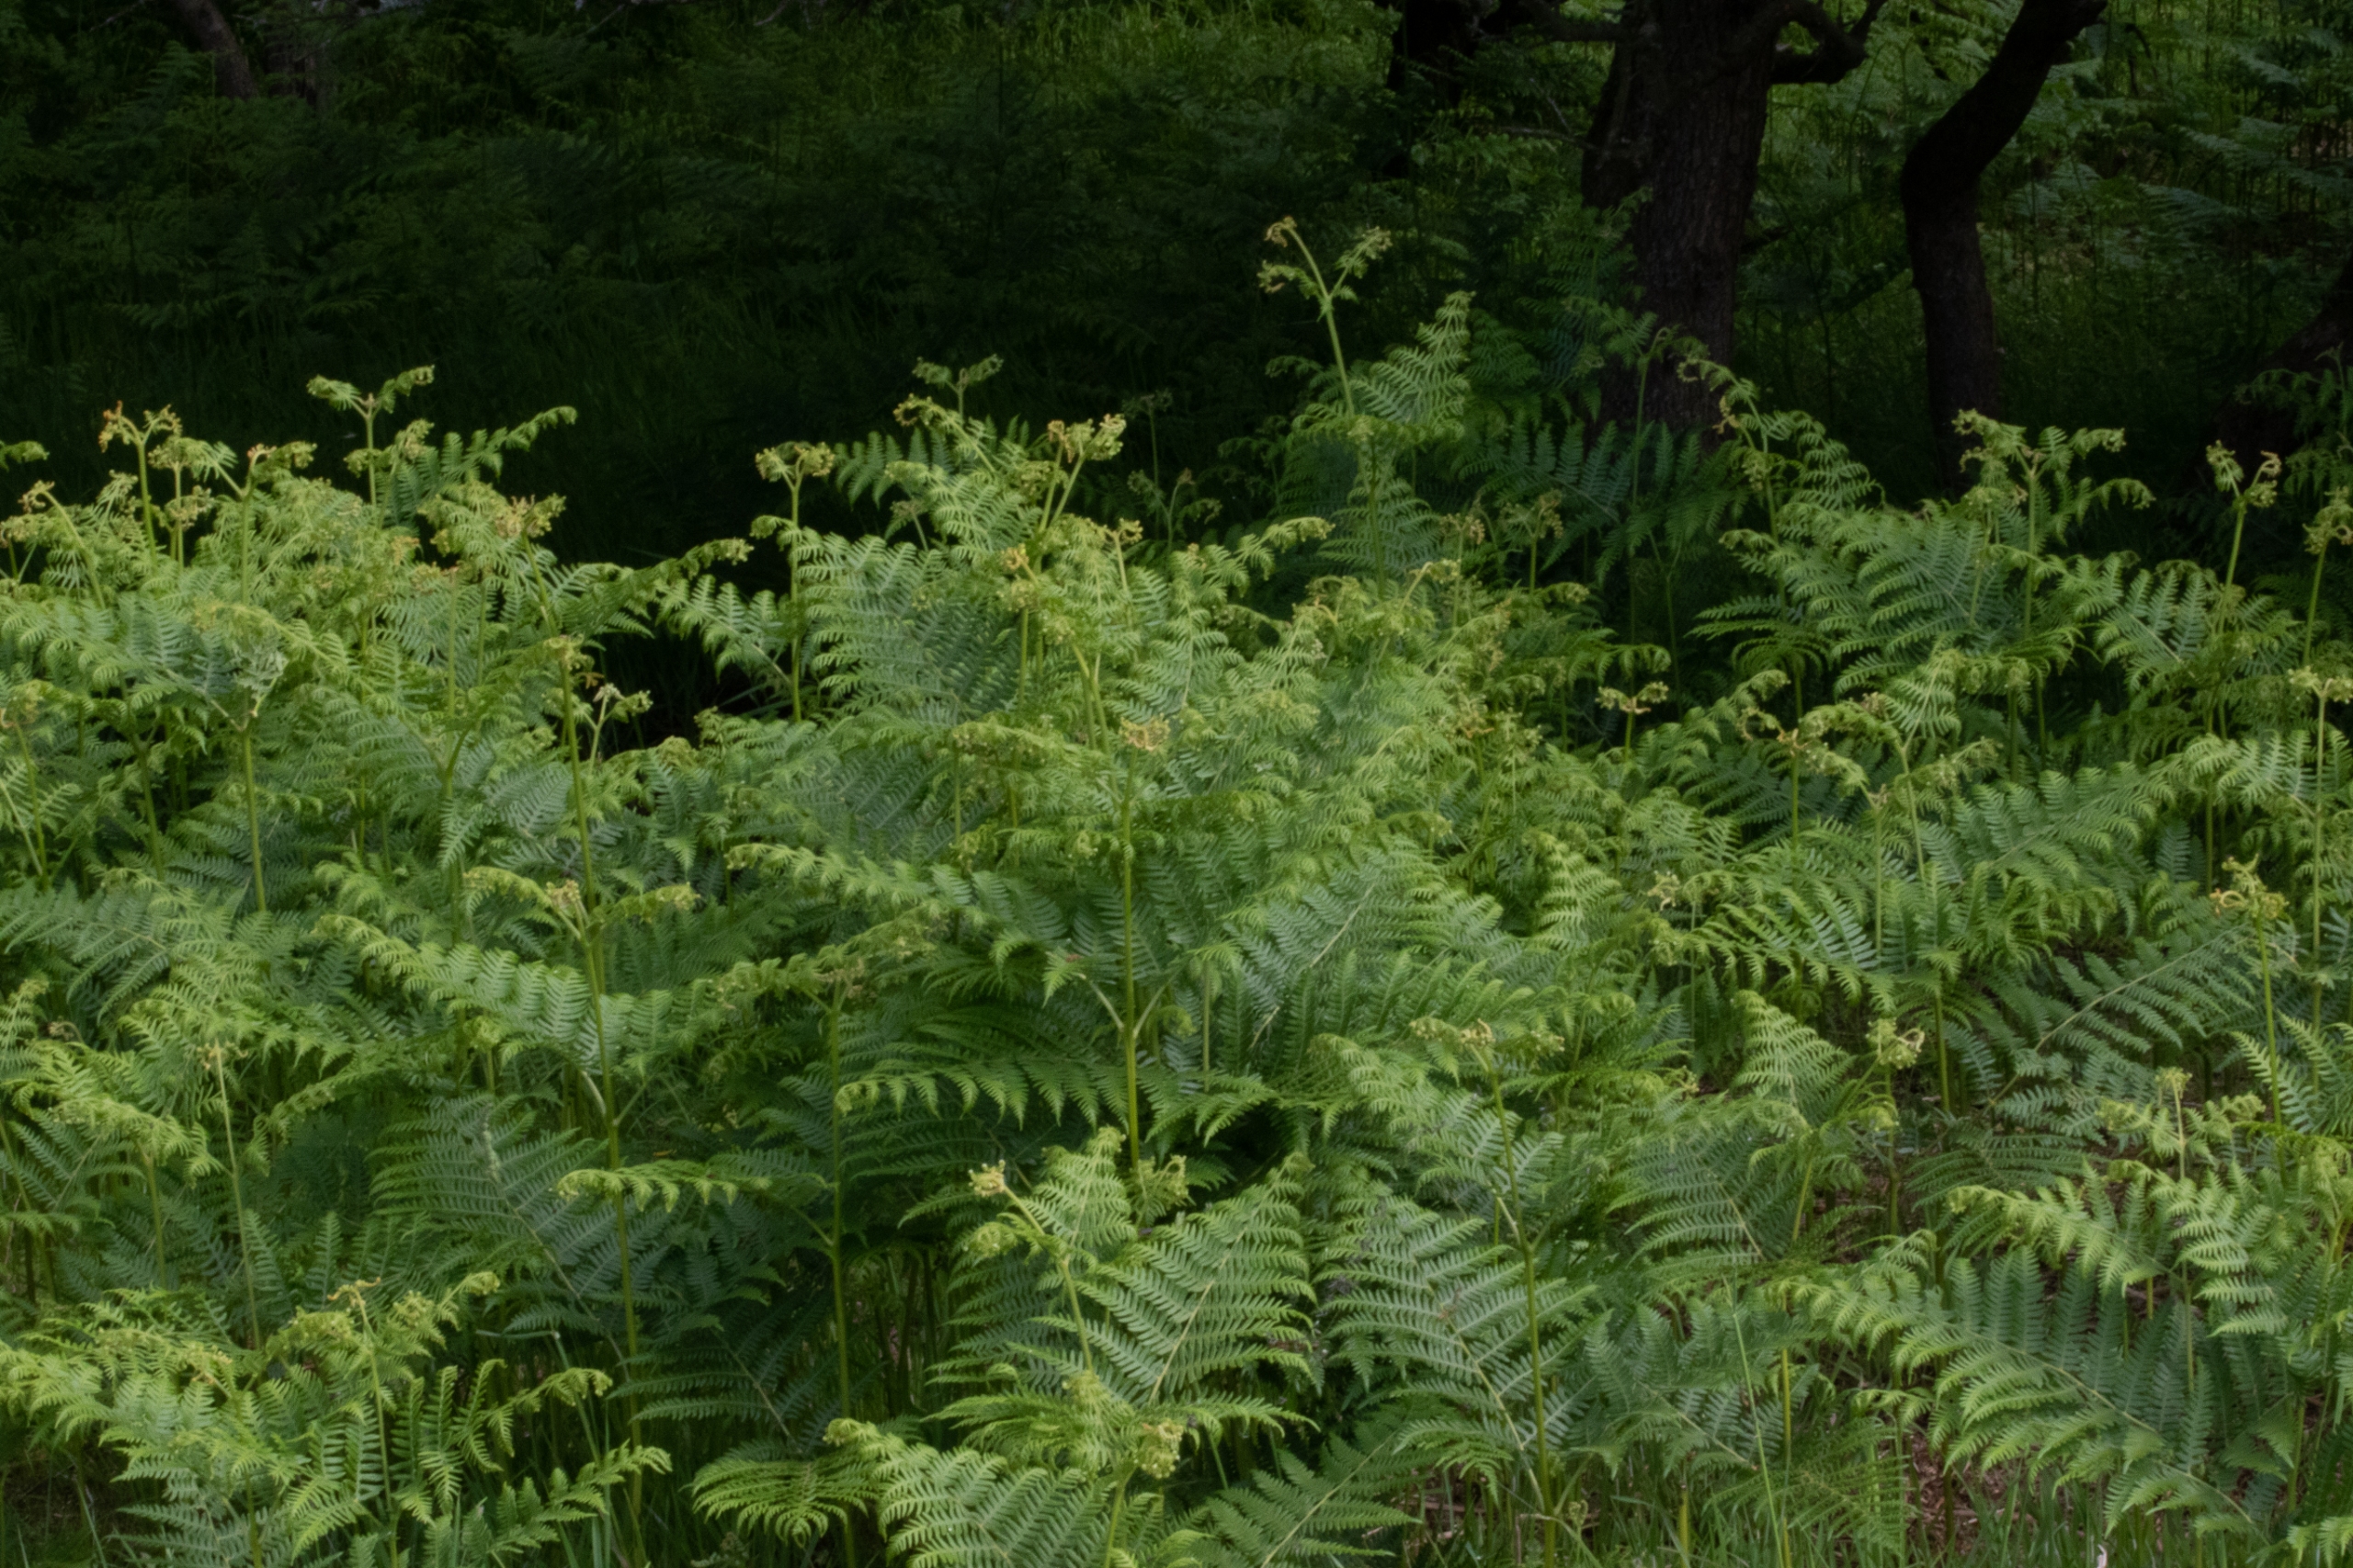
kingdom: Plantae
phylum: Tracheophyta
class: Polypodiopsida
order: Polypodiales
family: Dennstaedtiaceae
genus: Pteridium
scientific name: Pteridium aquilinum
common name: Ørnebregne
